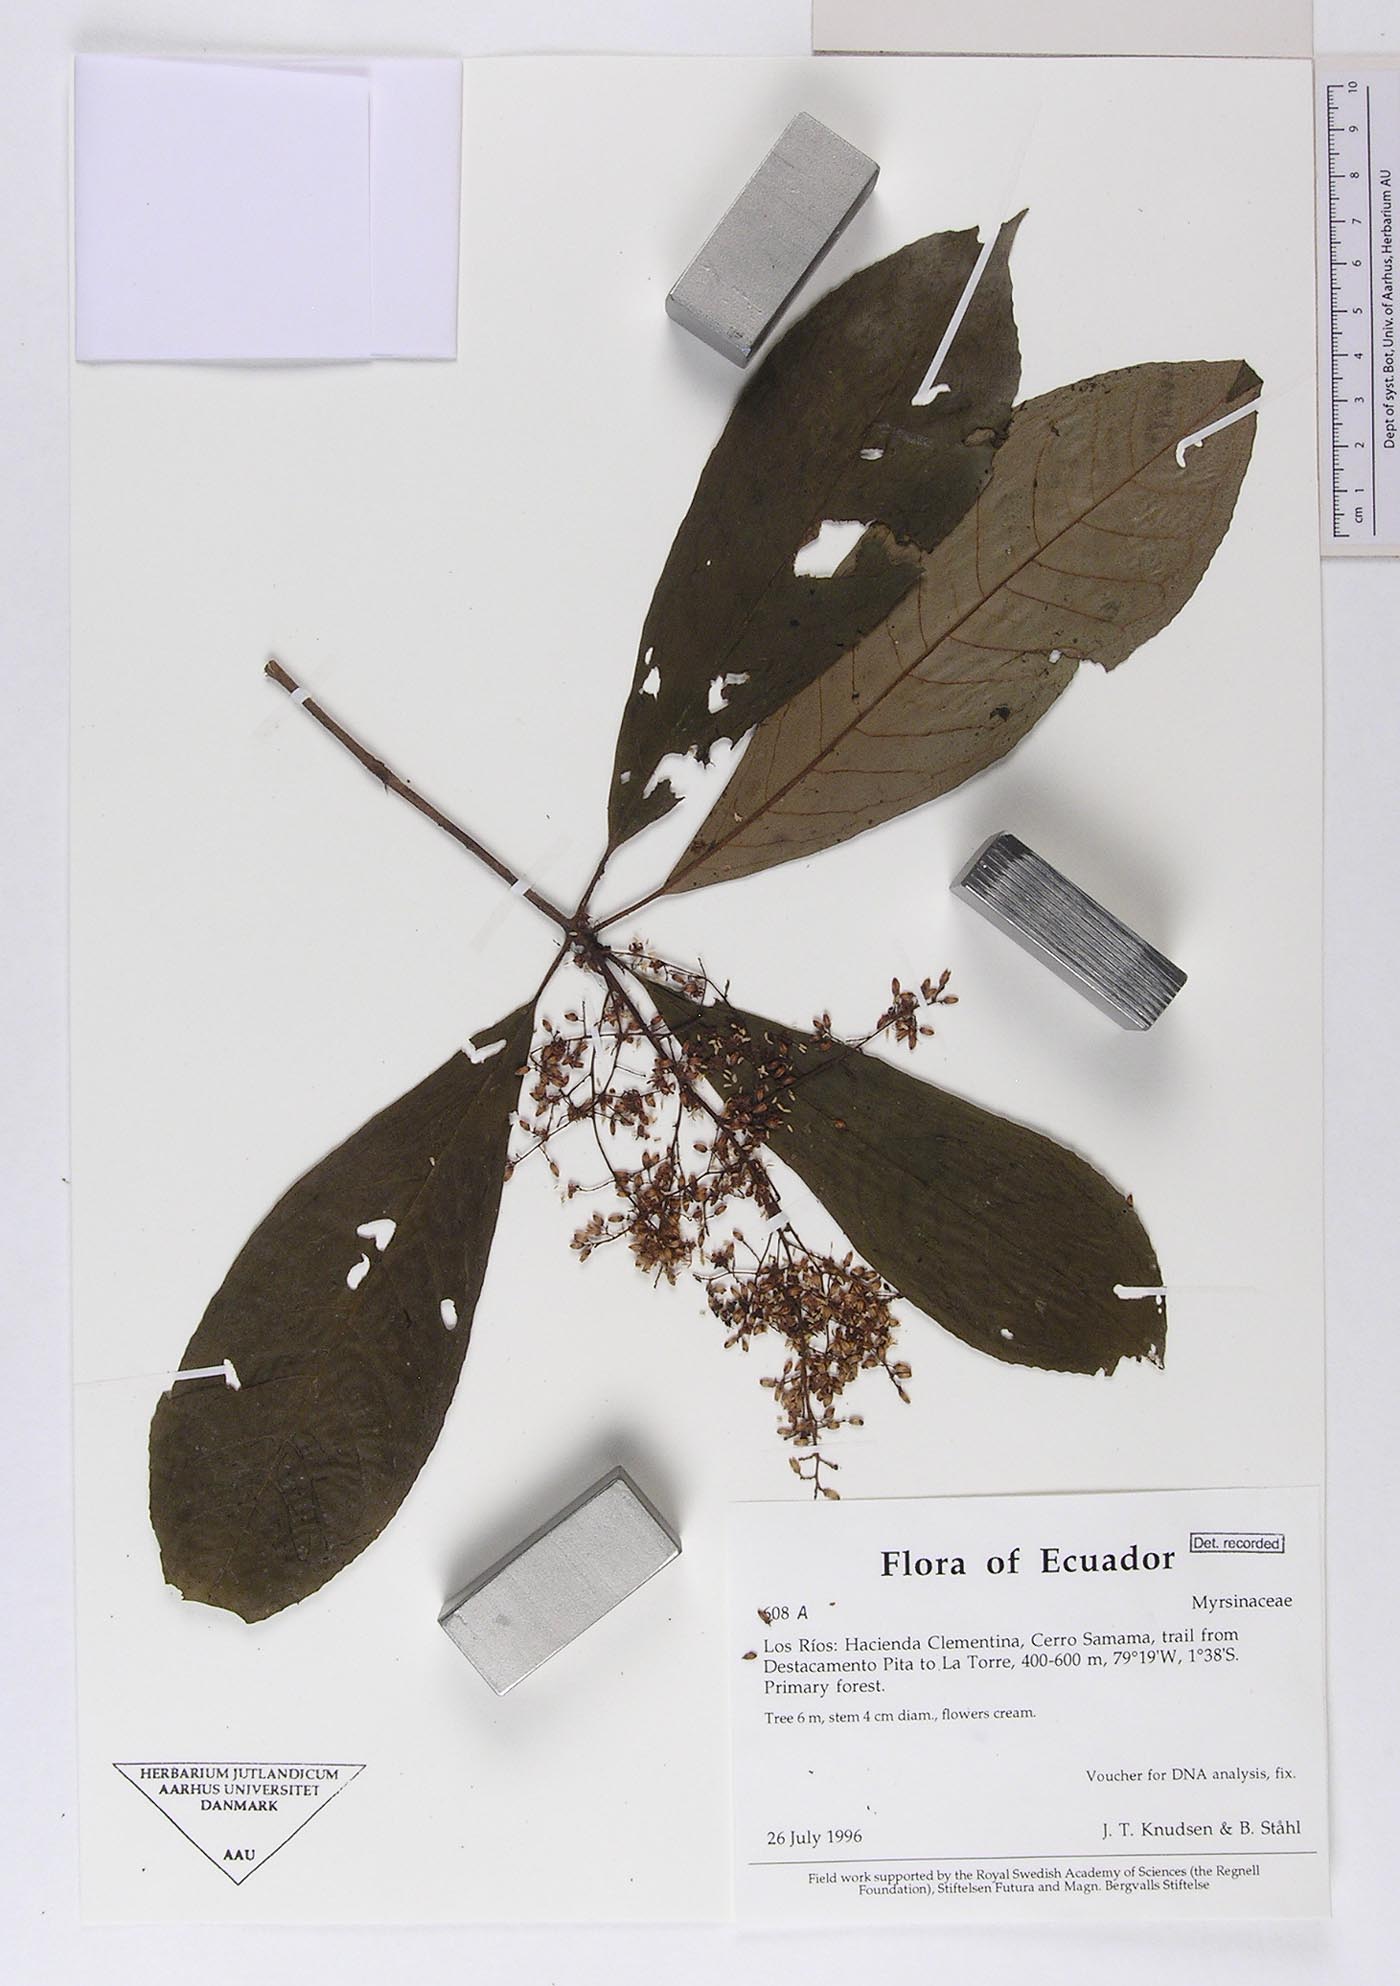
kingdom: Plantae
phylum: Tracheophyta
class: Magnoliopsida
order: Ericales
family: Primulaceae
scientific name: Primulaceae
